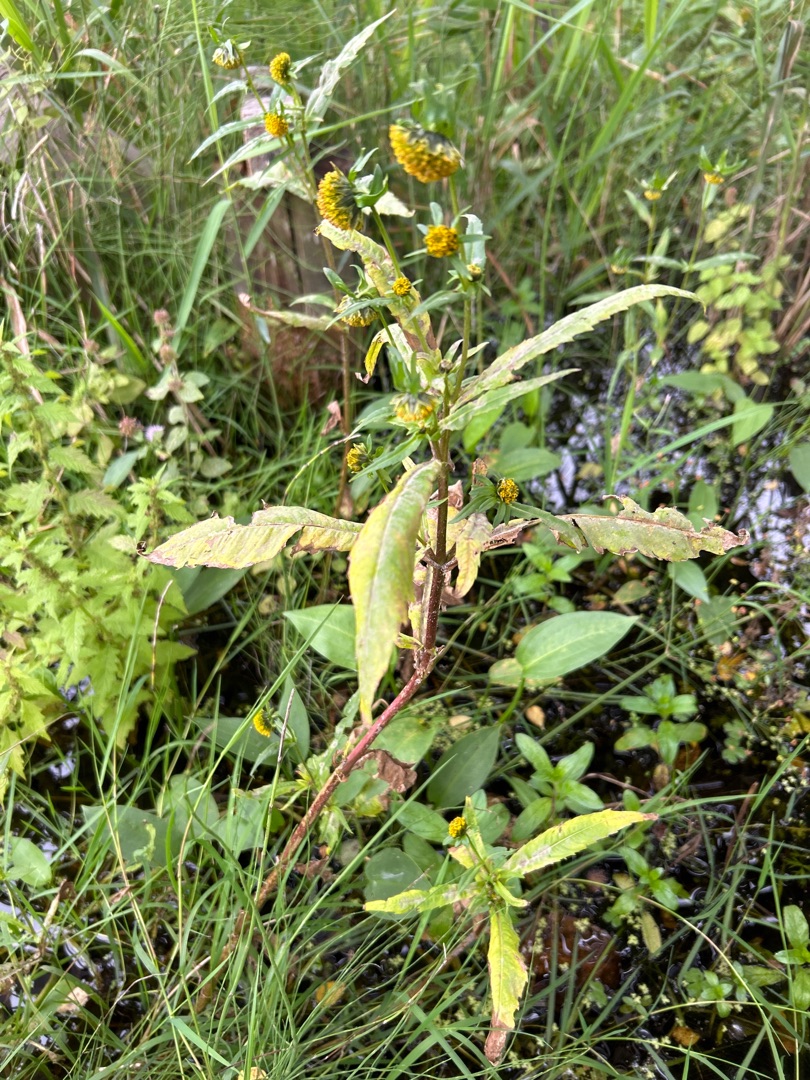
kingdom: Plantae
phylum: Tracheophyta
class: Magnoliopsida
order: Asterales
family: Asteraceae
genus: Bidens
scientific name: Bidens cernua
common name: Nikkende brøndsel
